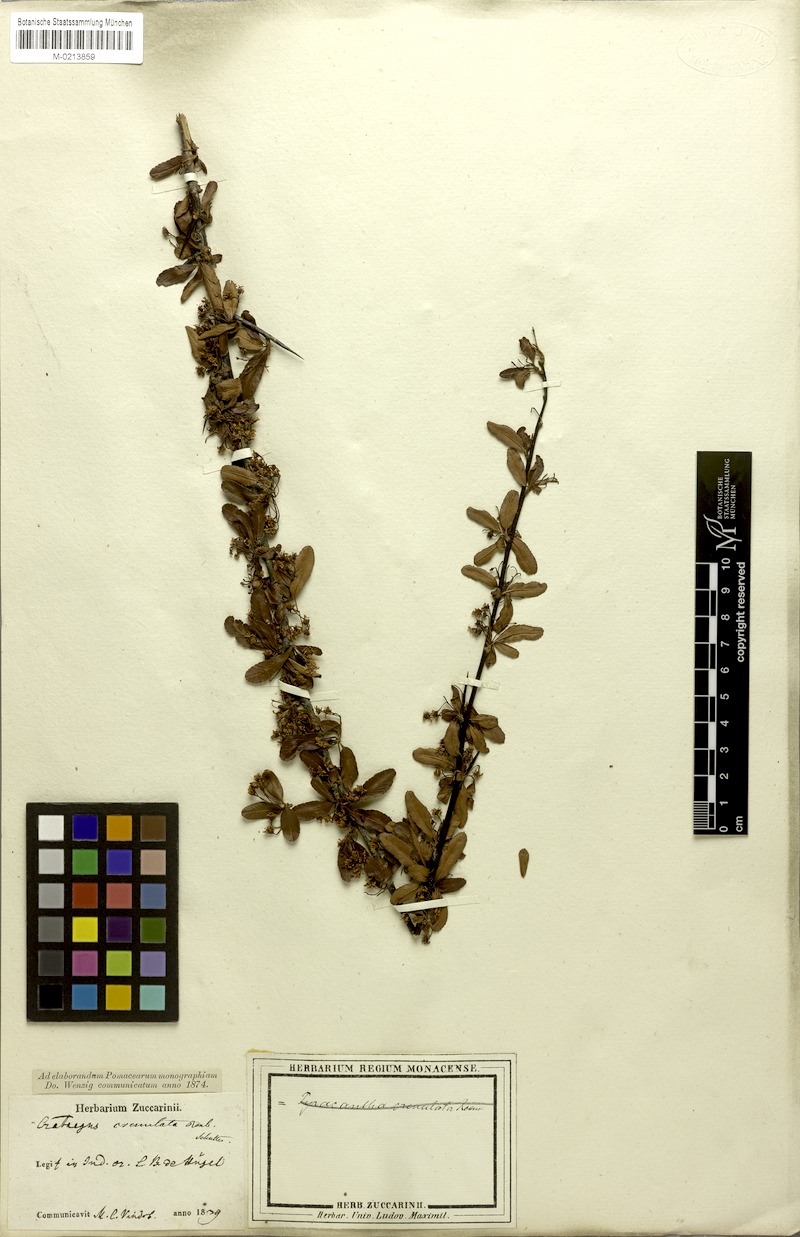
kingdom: Plantae
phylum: Tracheophyta
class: Magnoliopsida
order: Rosales
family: Rosaceae
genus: Pyracantha
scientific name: Pyracantha crenulata
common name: Nepalese firethorn
